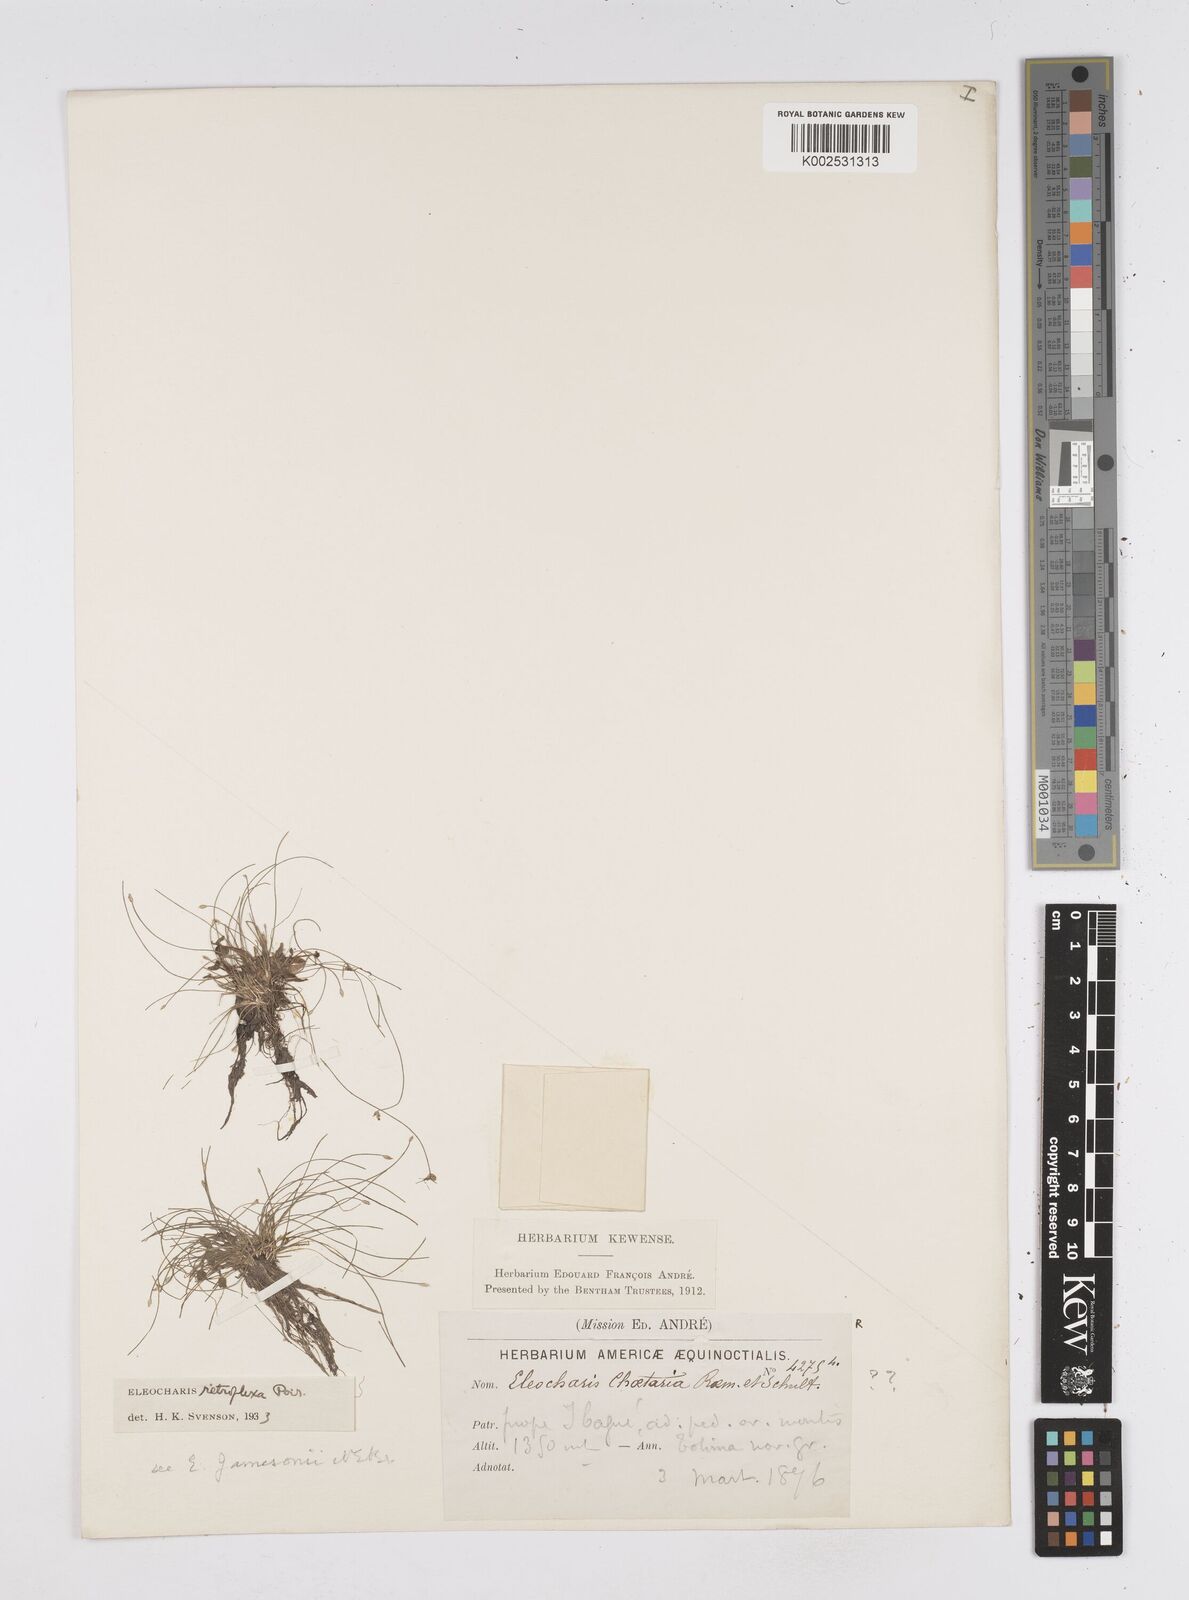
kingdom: Plantae
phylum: Tracheophyta
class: Liliopsida
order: Poales
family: Cyperaceae
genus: Eleocharis
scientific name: Eleocharis retroflexa
